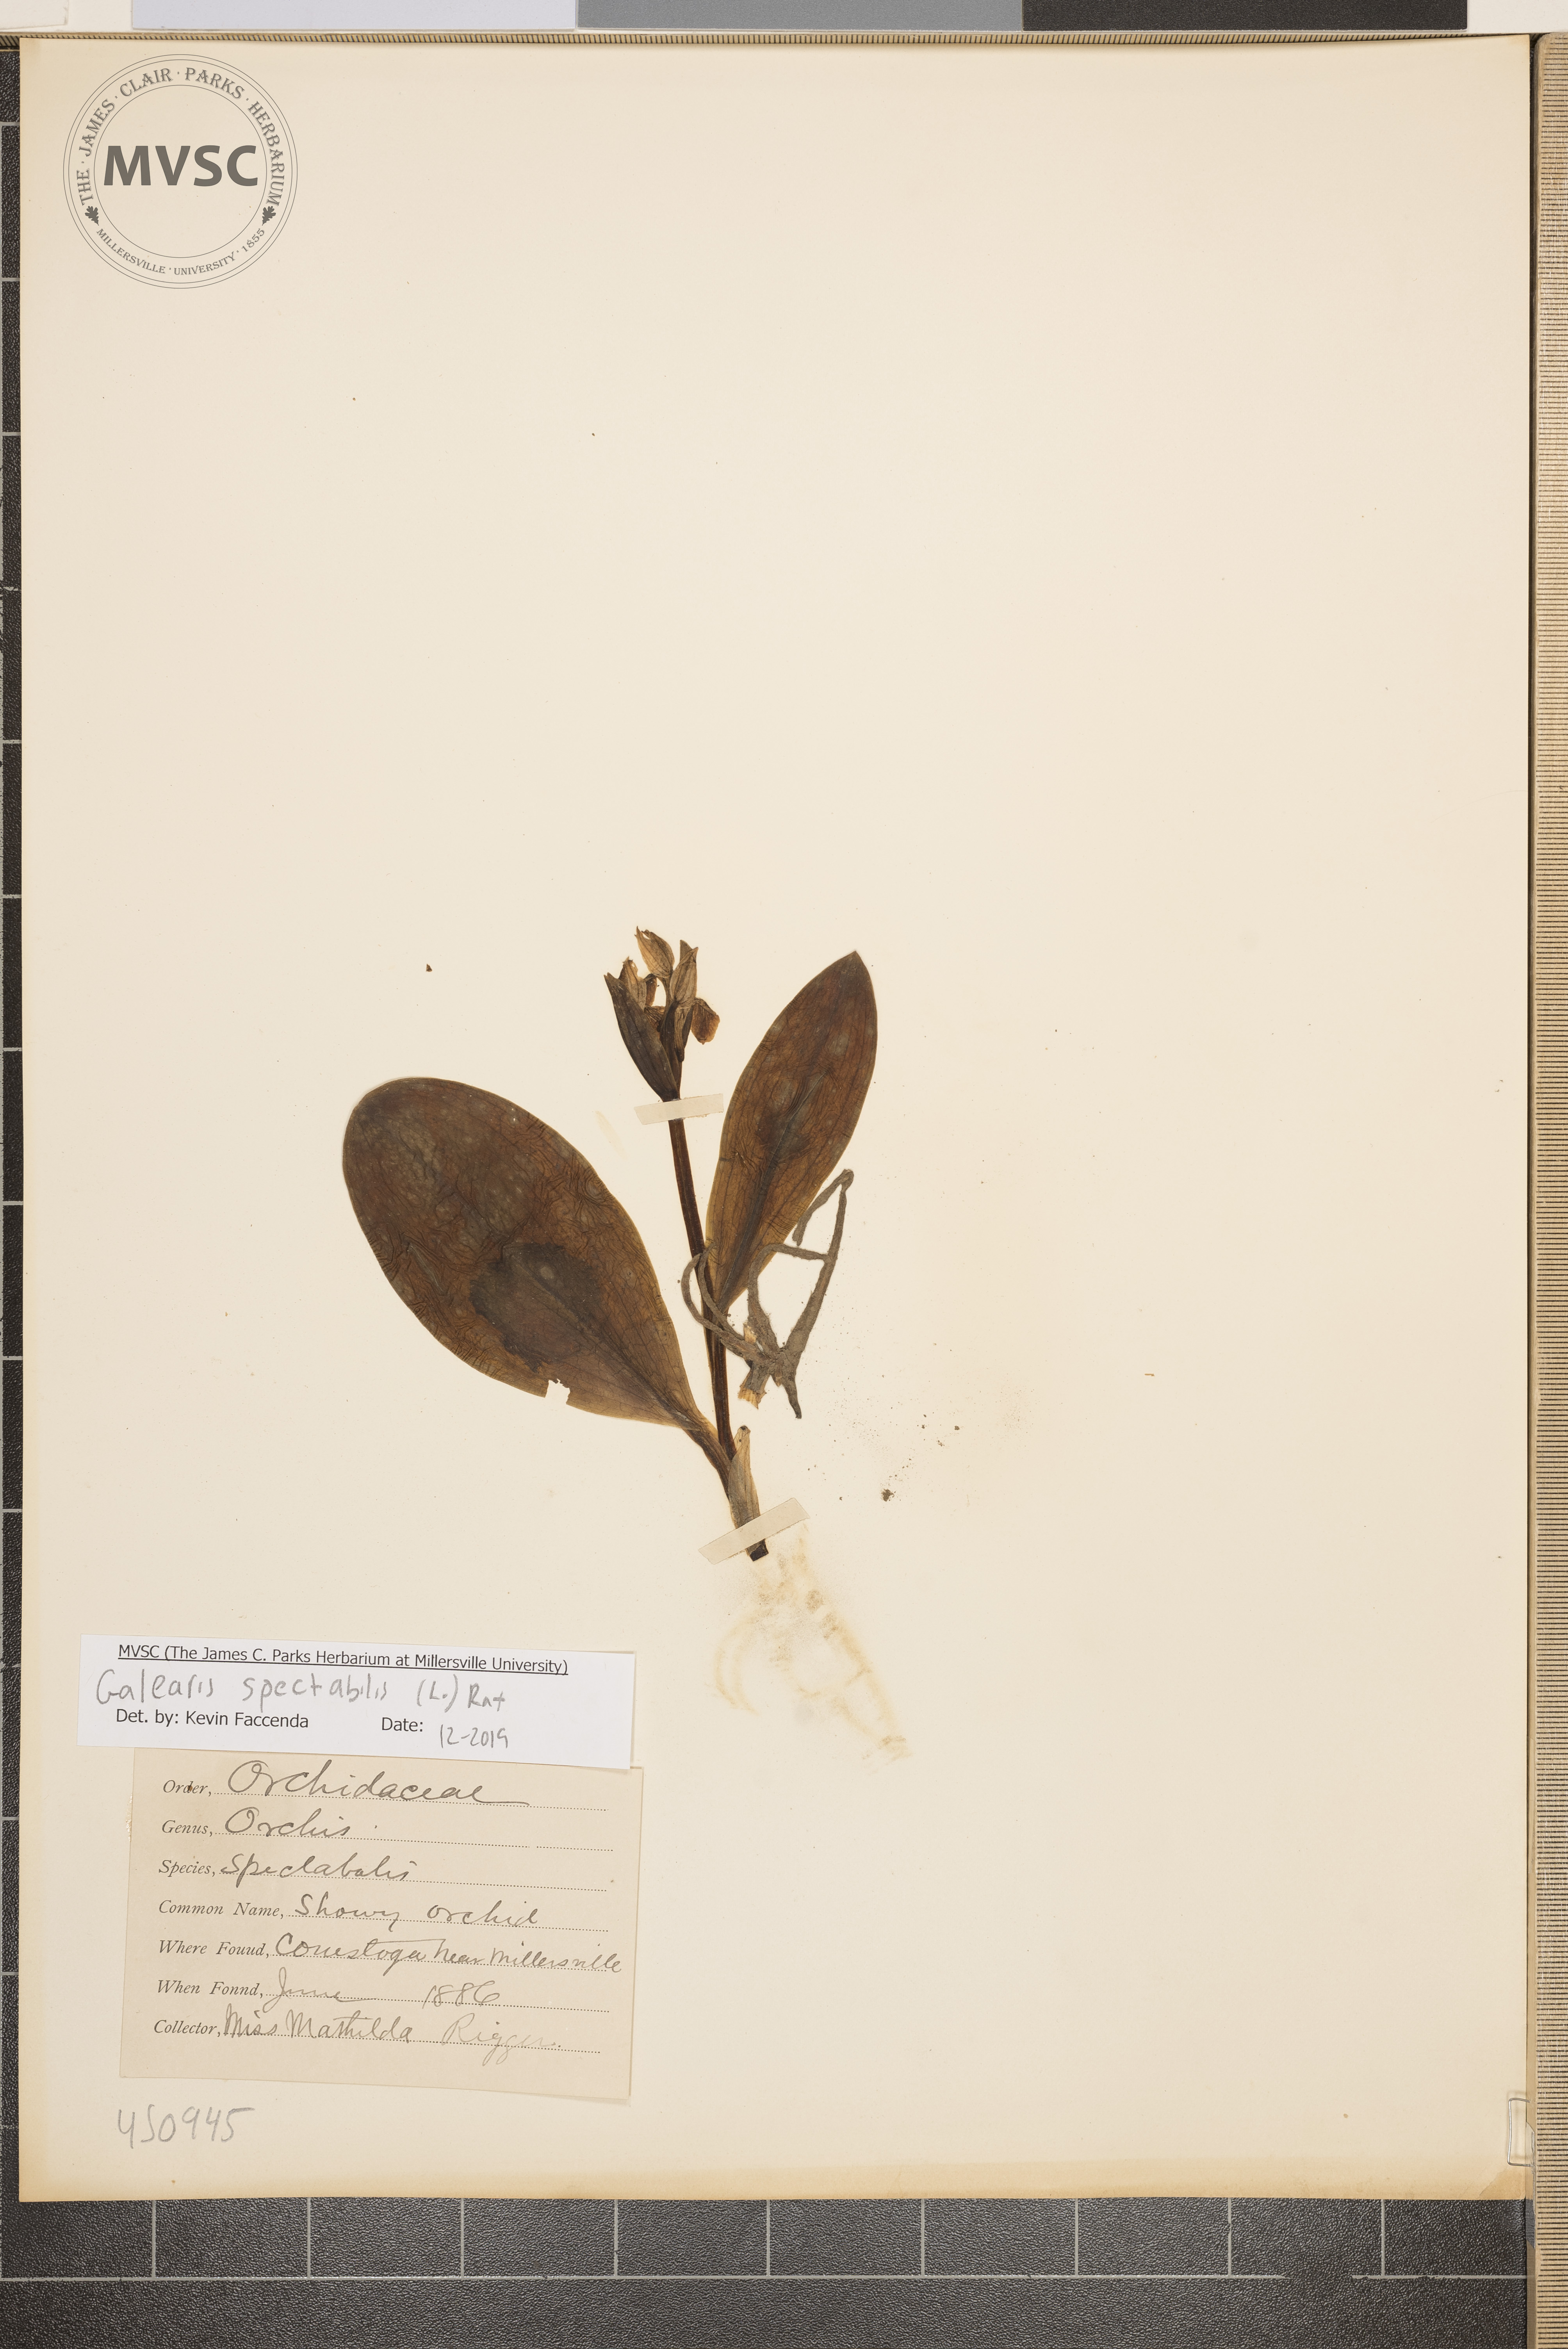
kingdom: Plantae
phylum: Tracheophyta
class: Liliopsida
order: Asparagales
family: Orchidaceae
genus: Galearis
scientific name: Galearis spectabilis
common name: Showy Orchis
